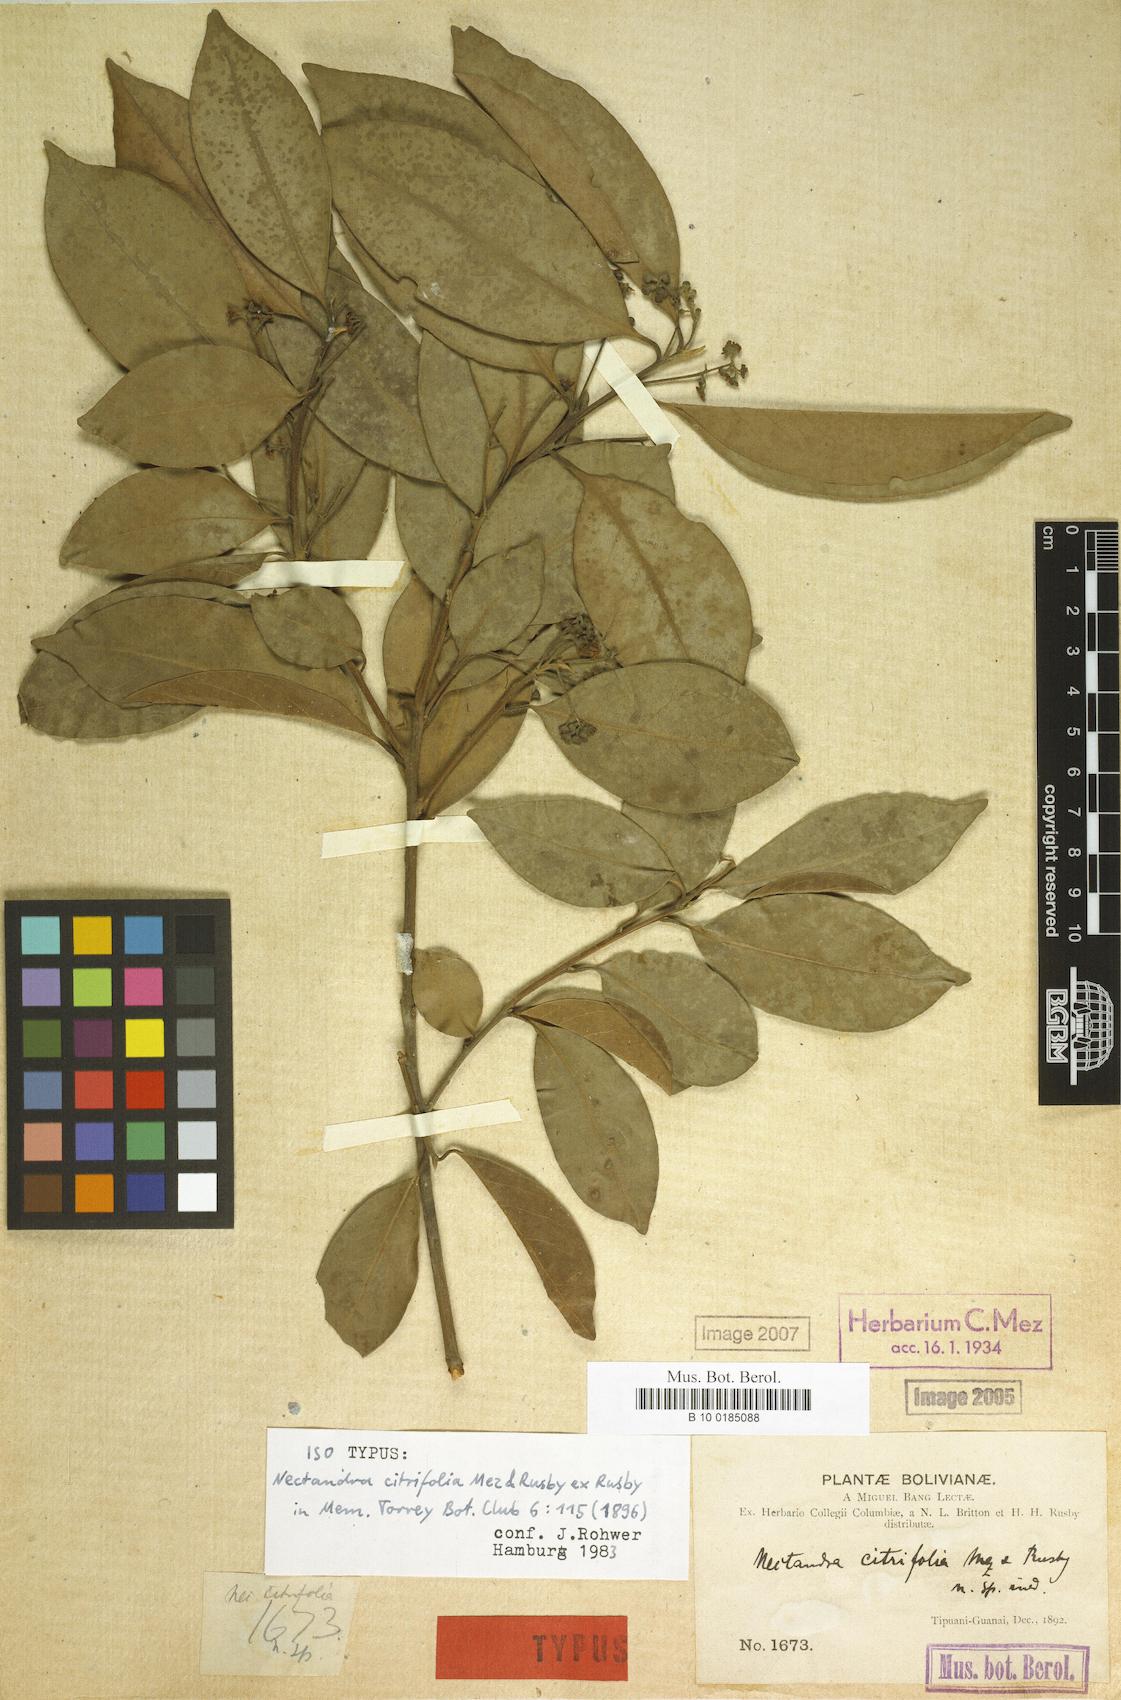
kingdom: Plantae
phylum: Tracheophyta
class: Magnoliopsida
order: Laurales
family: Lauraceae
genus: Nectandra
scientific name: Nectandra citrifolia
